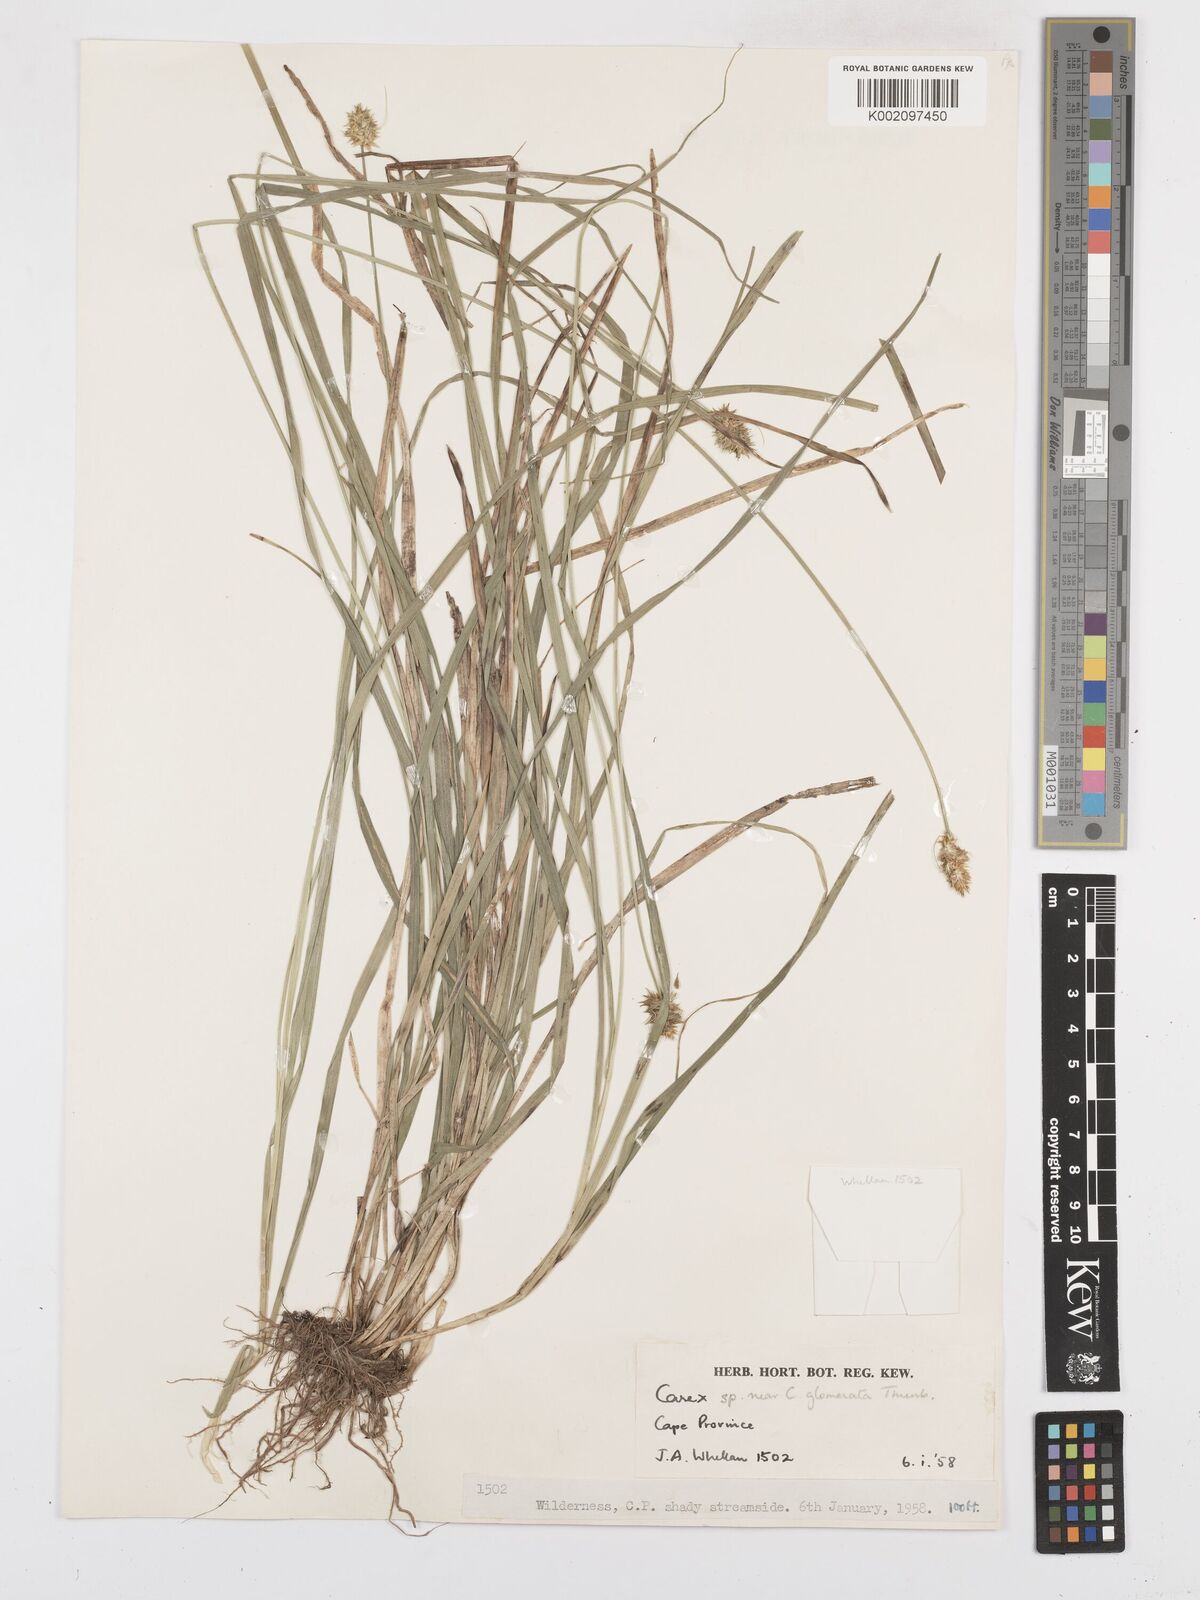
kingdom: Plantae
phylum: Tracheophyta
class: Liliopsida
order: Poales
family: Cyperaceae
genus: Carex
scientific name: Carex glomerata
